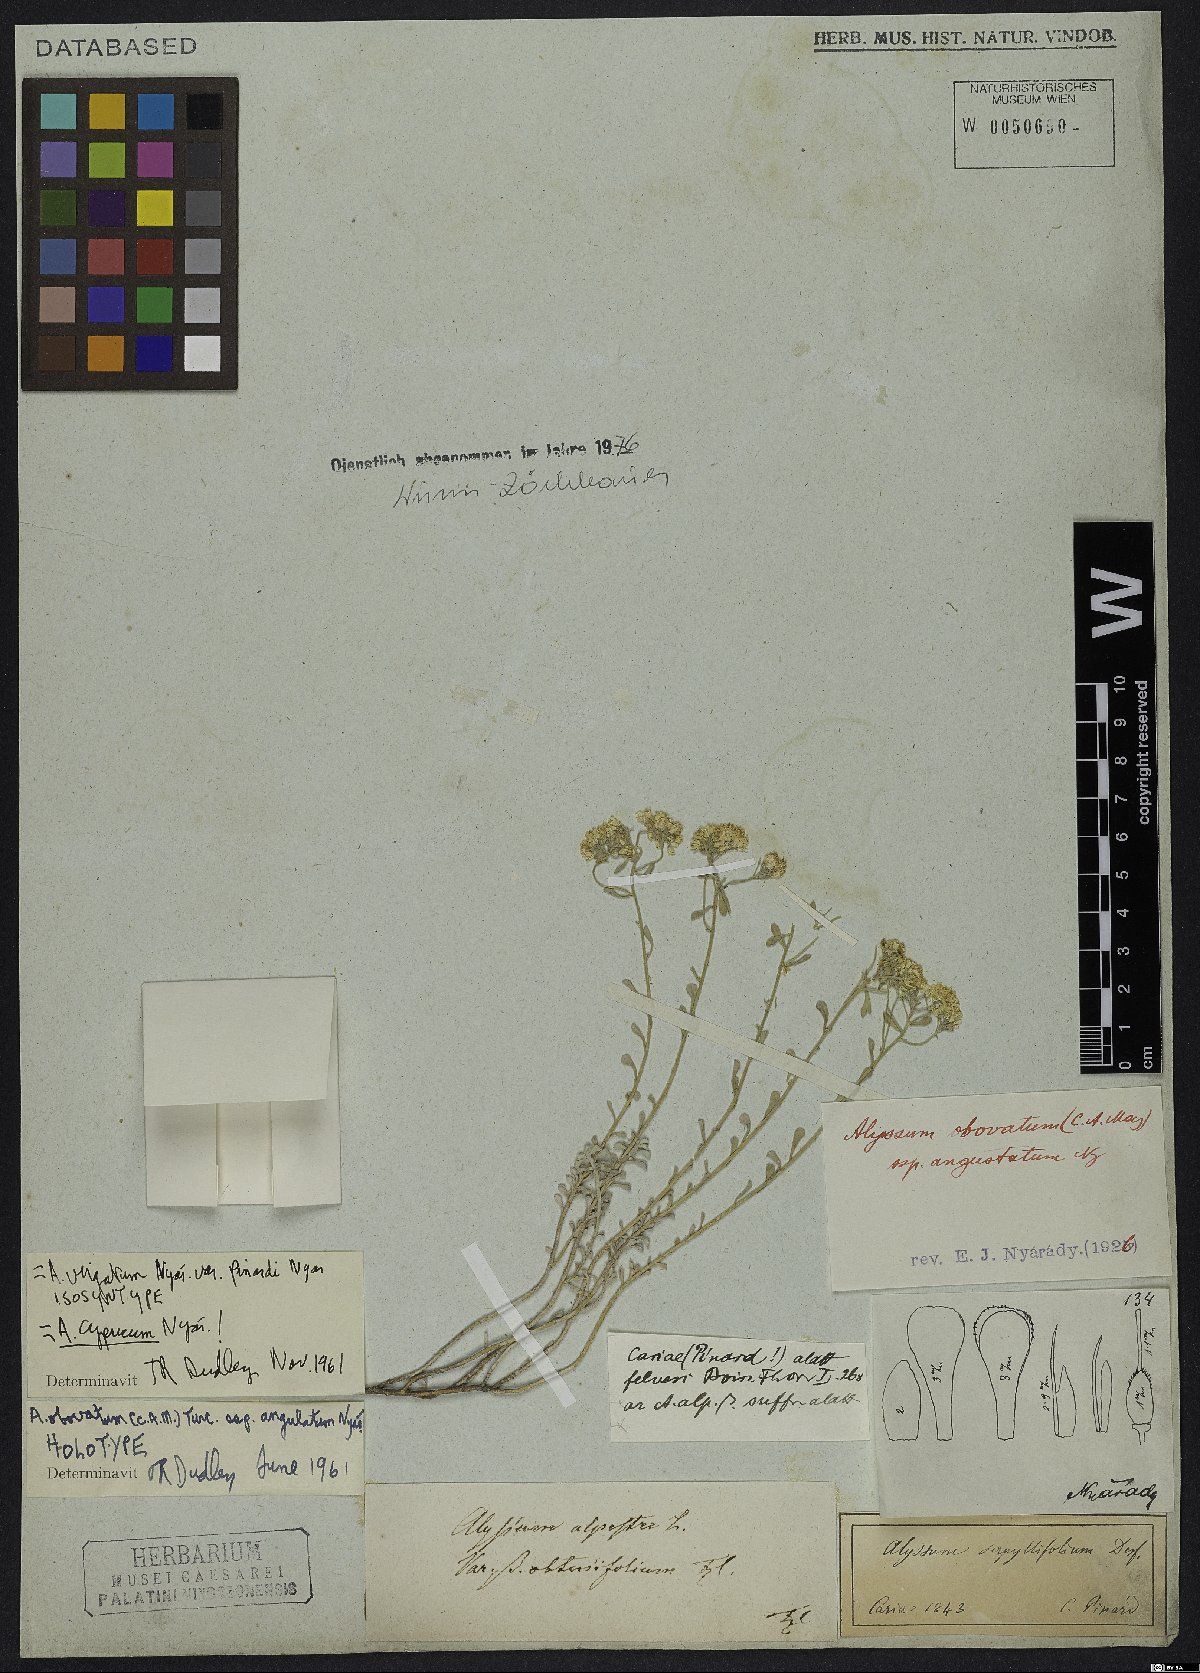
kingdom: Plantae
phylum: Tracheophyta
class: Magnoliopsida
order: Brassicales
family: Brassicaceae
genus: Odontarrhena
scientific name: Odontarrhena cyprica
